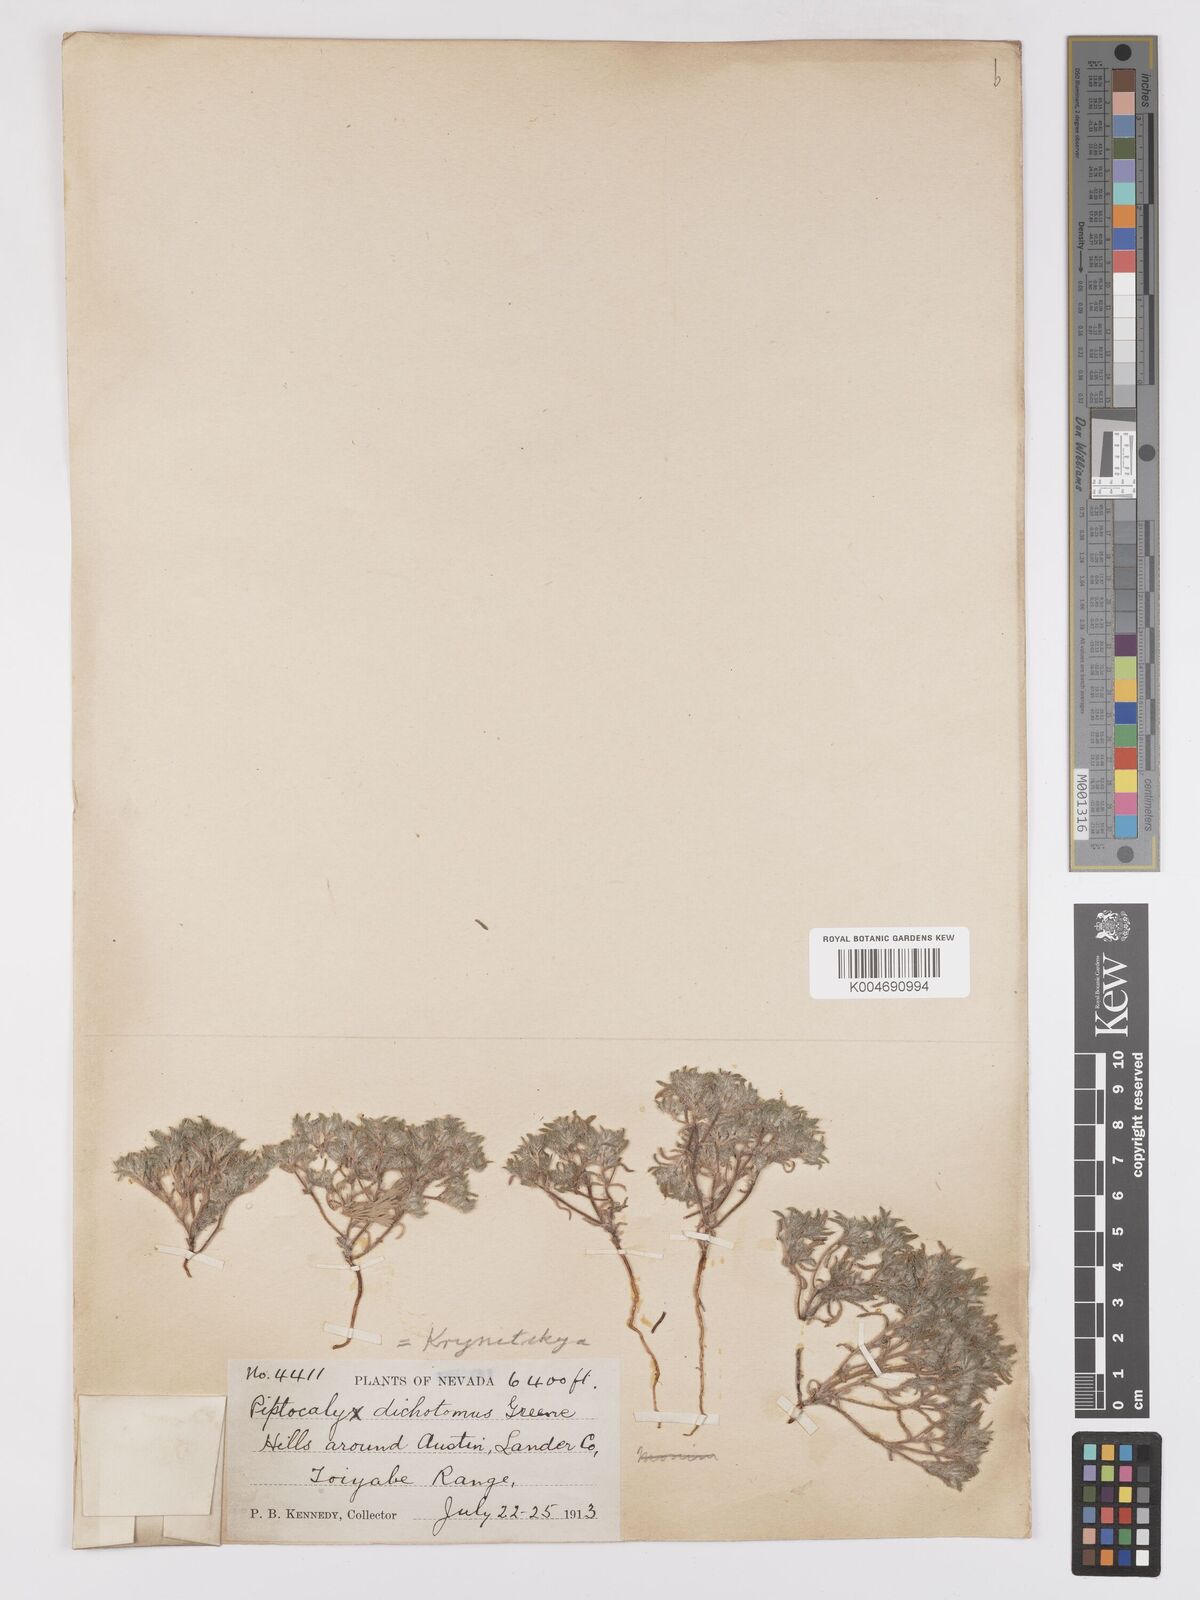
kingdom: Plantae
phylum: Tracheophyta
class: Magnoliopsida
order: Boraginales
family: Boraginaceae
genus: Greeneocharis
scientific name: Greeneocharis circumscissa
